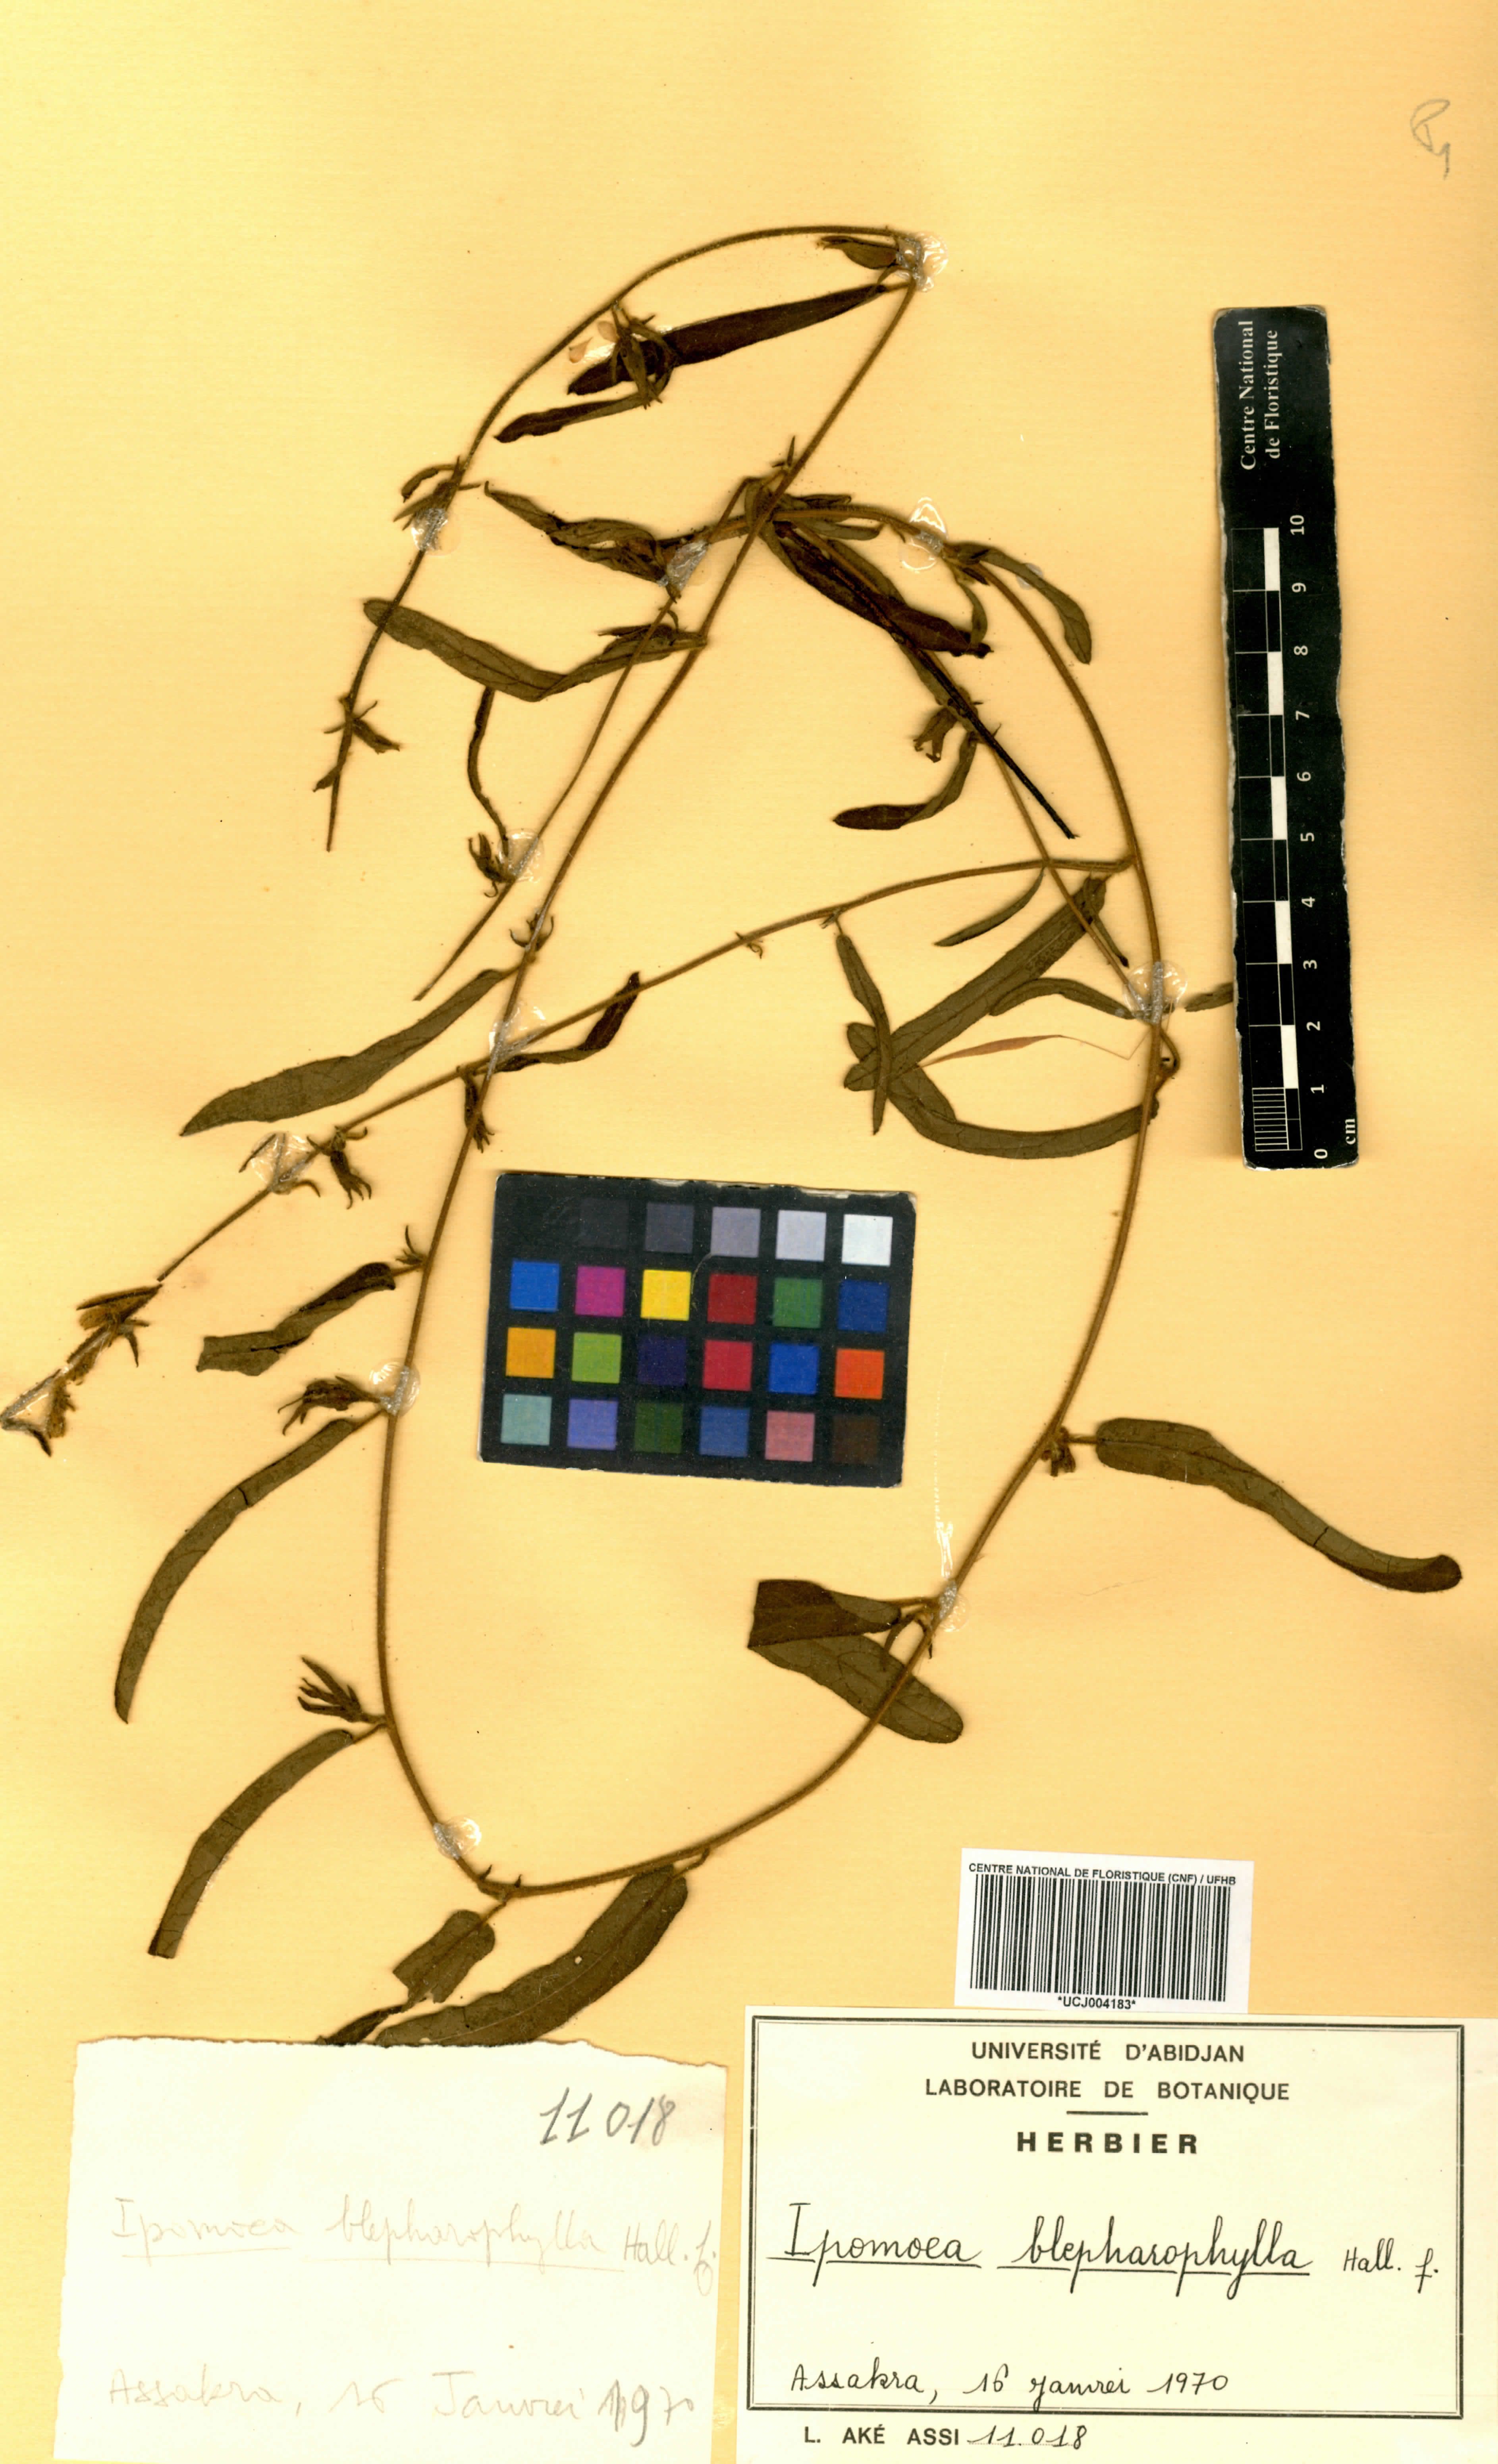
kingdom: Plantae
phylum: Tracheophyta
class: Magnoliopsida
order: Solanales
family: Convolvulaceae
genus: Ipomoea
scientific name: Ipomoea blepharophylla
